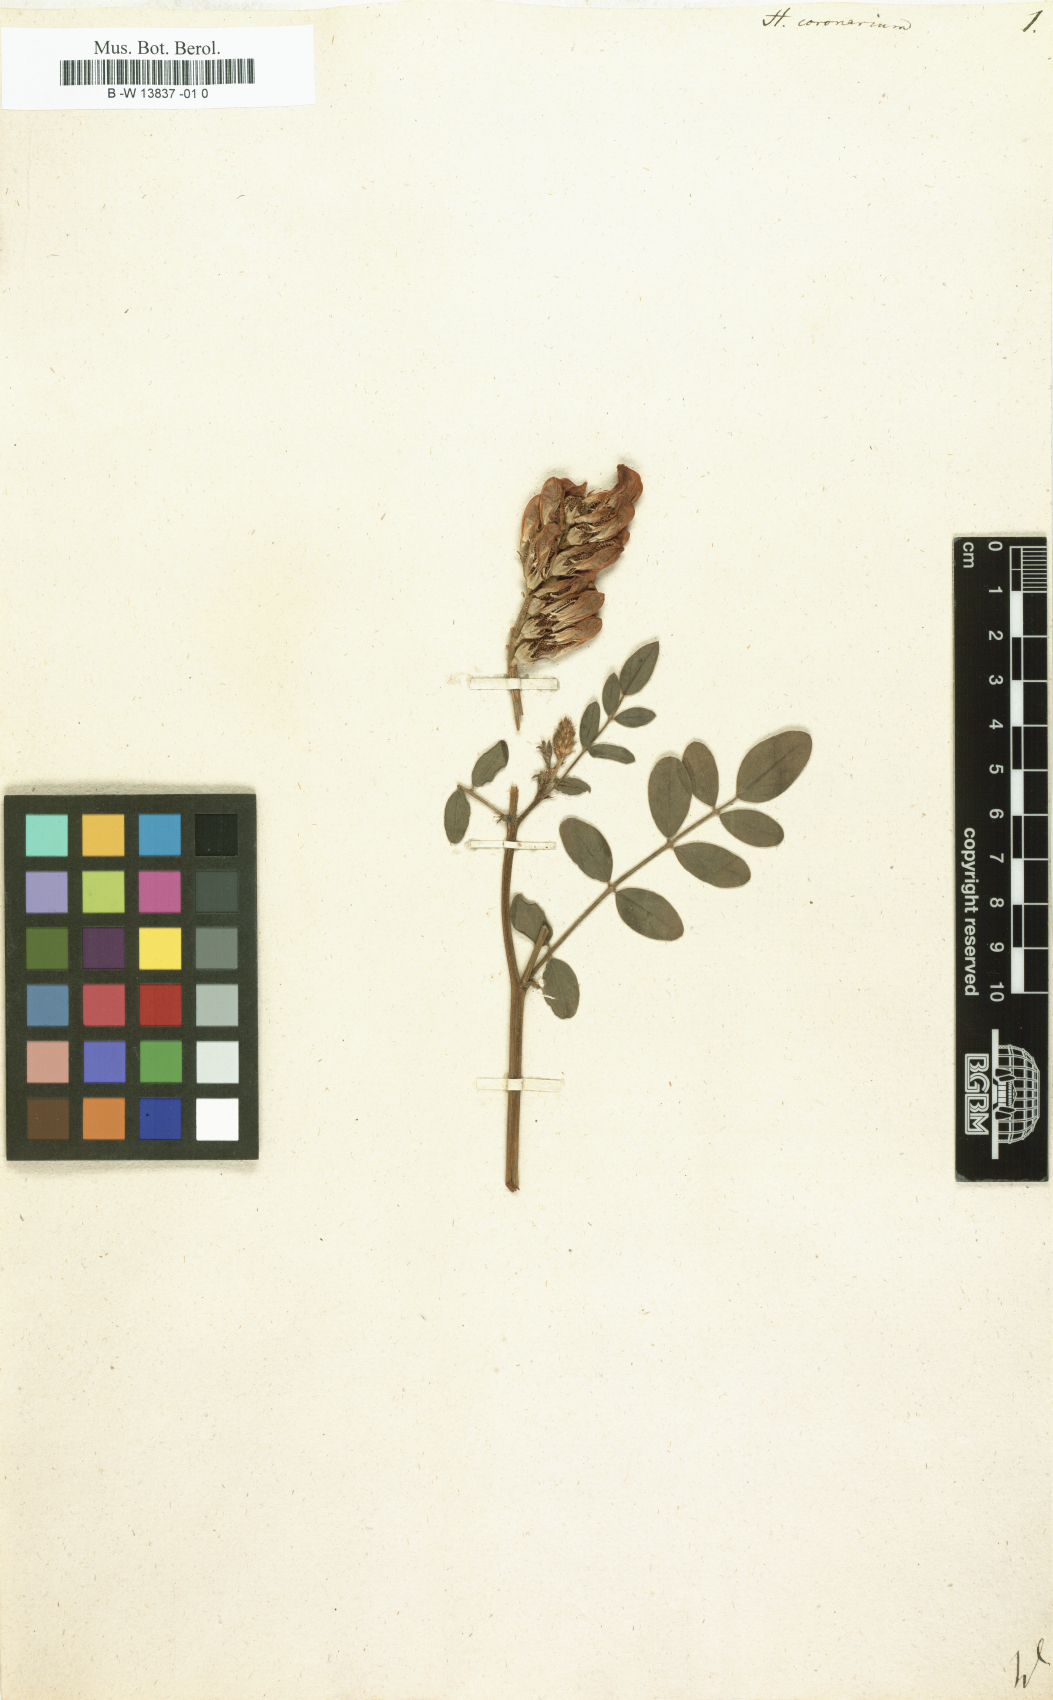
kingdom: Plantae
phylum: Tracheophyta
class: Magnoliopsida
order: Fabales
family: Fabaceae
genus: Sulla
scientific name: Sulla coronaria
